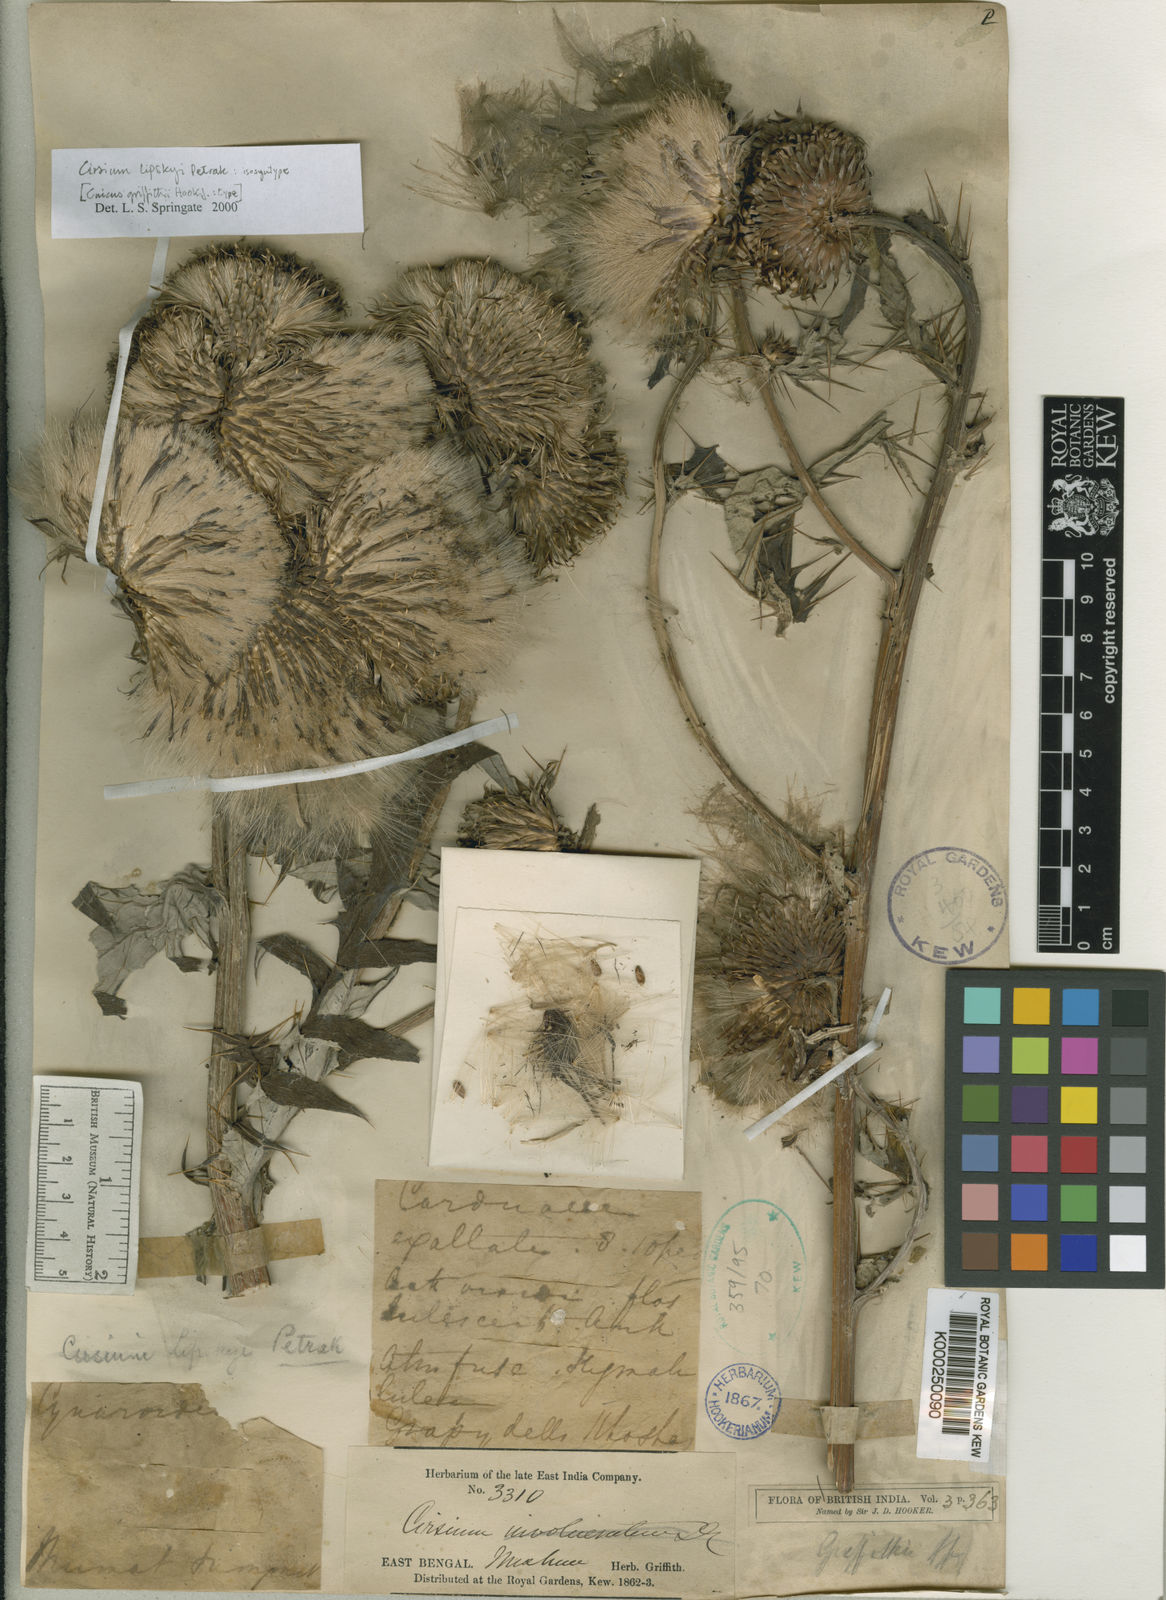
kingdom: Plantae
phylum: Tracheophyta
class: Magnoliopsida
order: Asterales
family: Asteraceae
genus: Lophiolepis
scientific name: Lophiolepis griffithii
